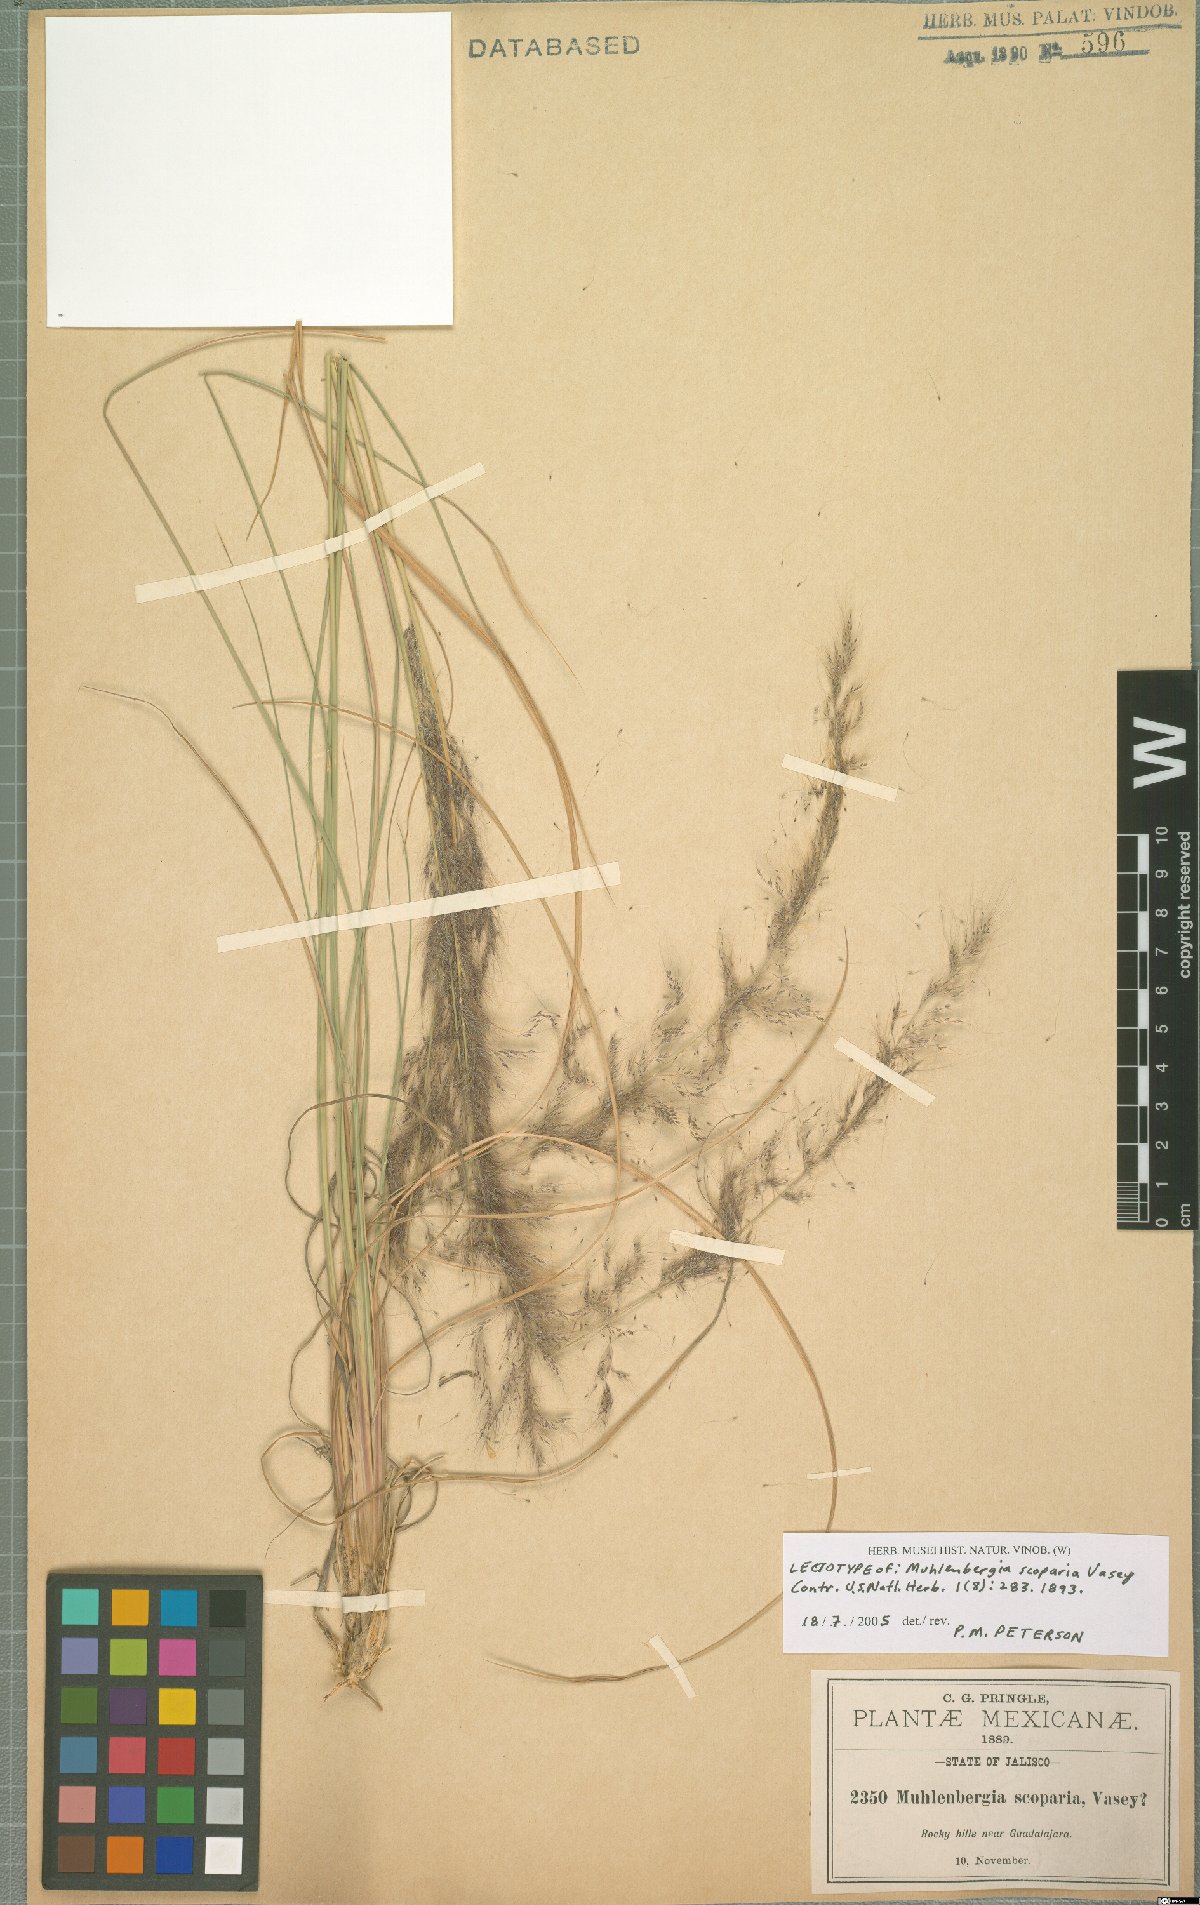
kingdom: Plantae
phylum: Tracheophyta
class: Liliopsida
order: Poales
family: Poaceae
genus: Muhlenbergia
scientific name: Muhlenbergia scoparia
